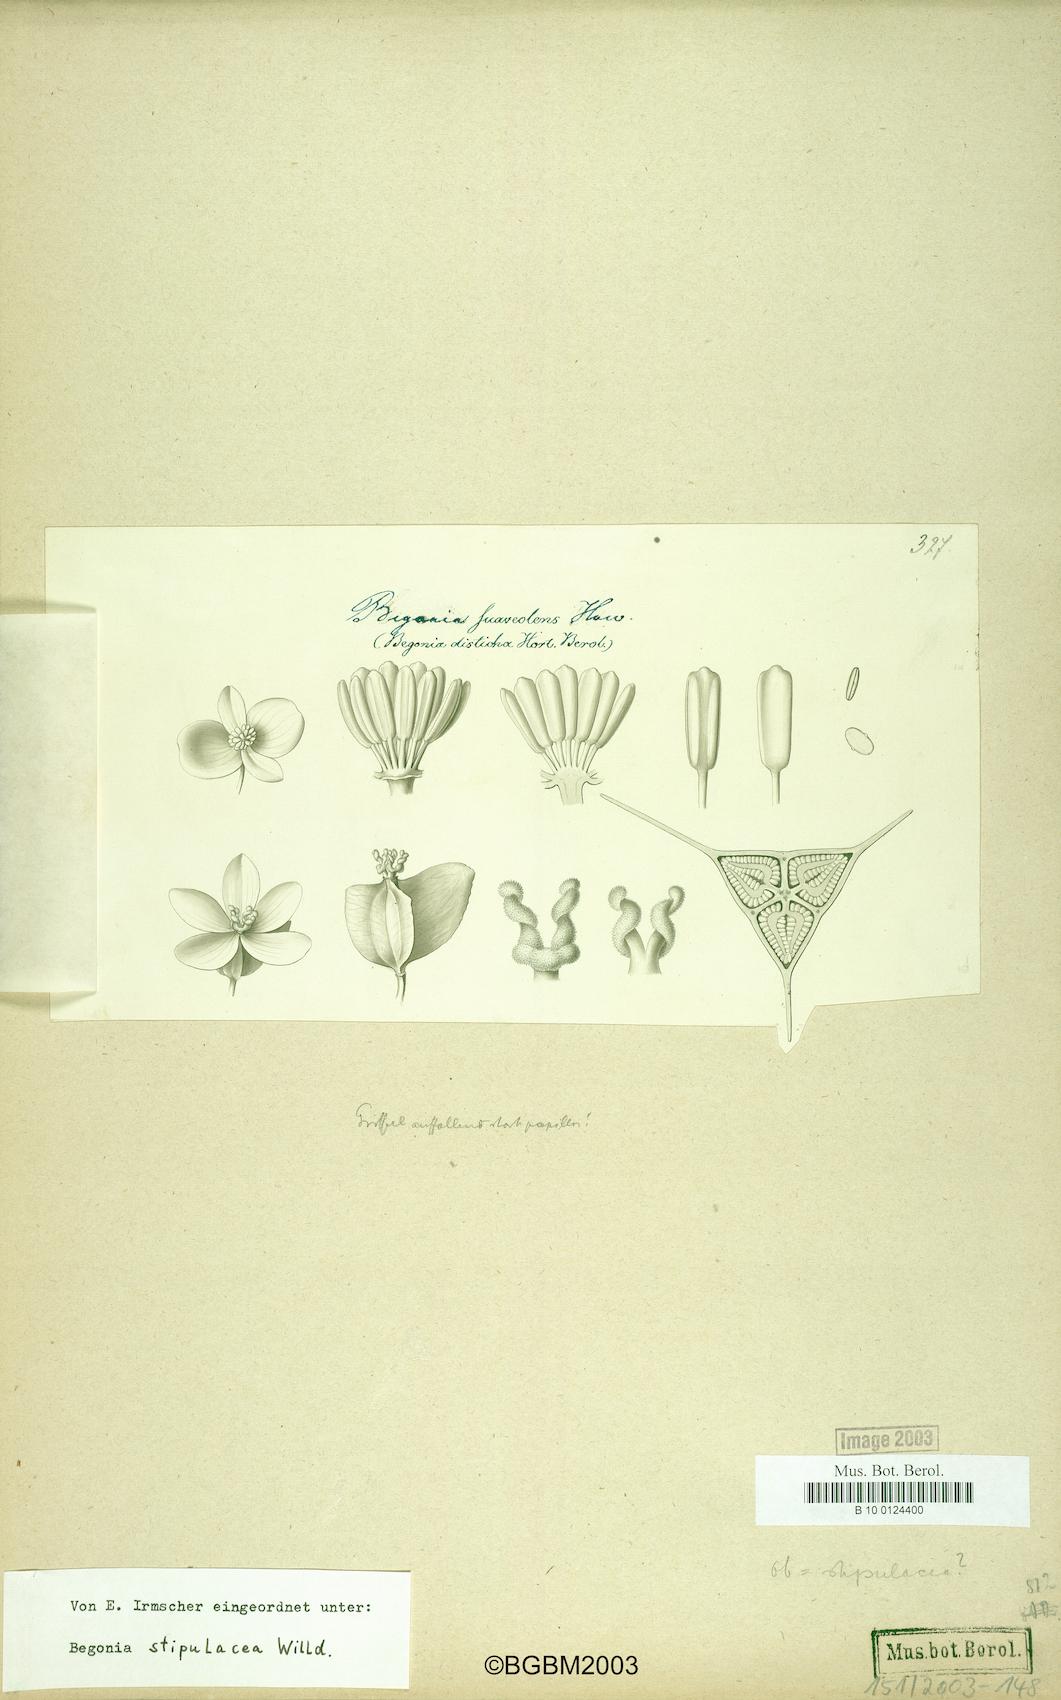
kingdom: Plantae
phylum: Tracheophyta
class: Magnoliopsida
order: Cucurbitales
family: Begoniaceae
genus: Begonia
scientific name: Begonia stipularis
